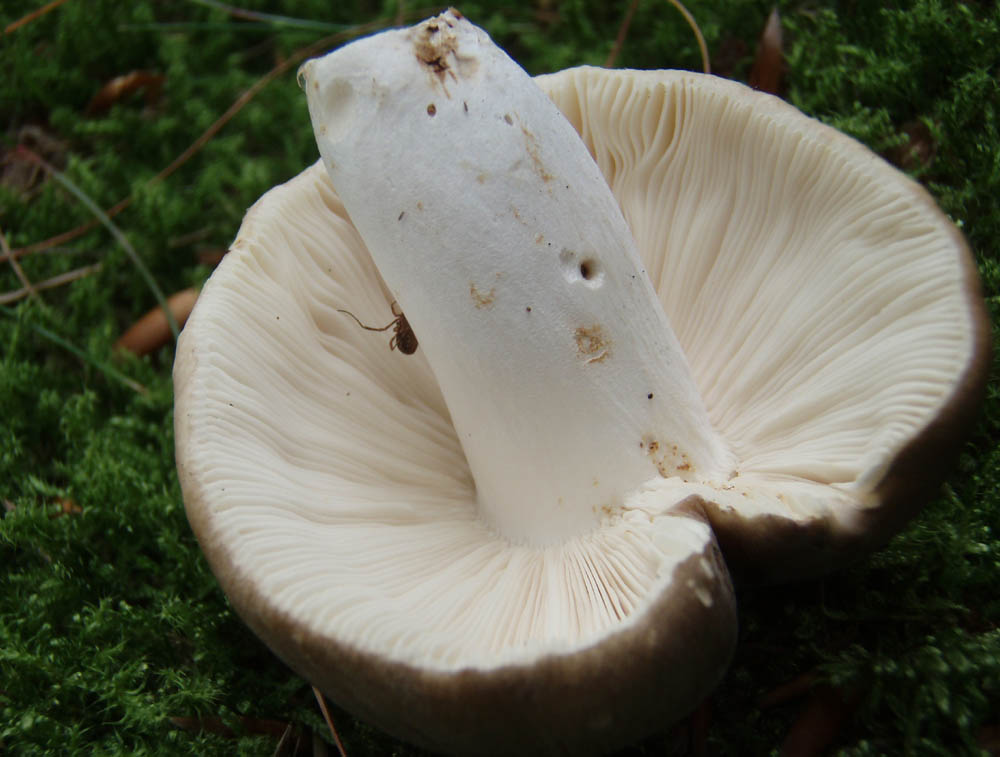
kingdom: Fungi
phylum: Basidiomycota
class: Agaricomycetes
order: Russulales
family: Russulaceae
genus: Russula
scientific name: Russula faustiana
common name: olivengrå skørhat
